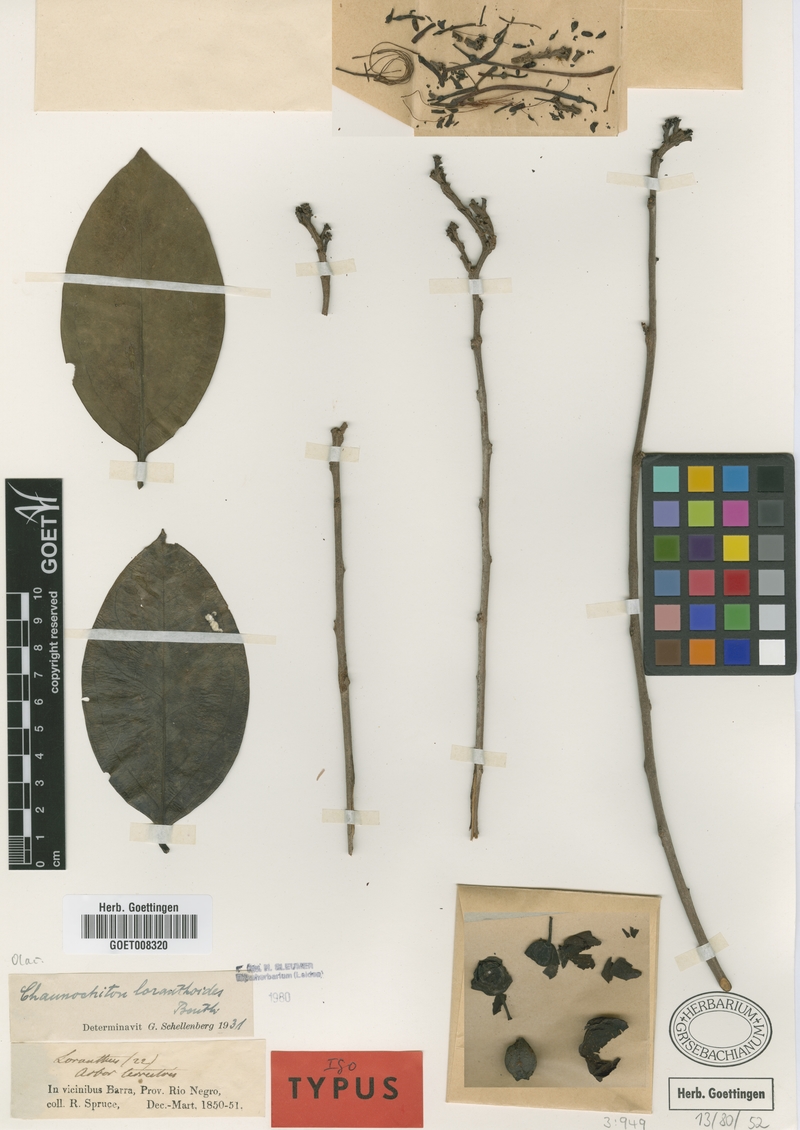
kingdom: Plantae
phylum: Tracheophyta
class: Magnoliopsida
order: Santalales
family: Aptandraceae
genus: Chaunochiton
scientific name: Chaunochiton loranthoides
